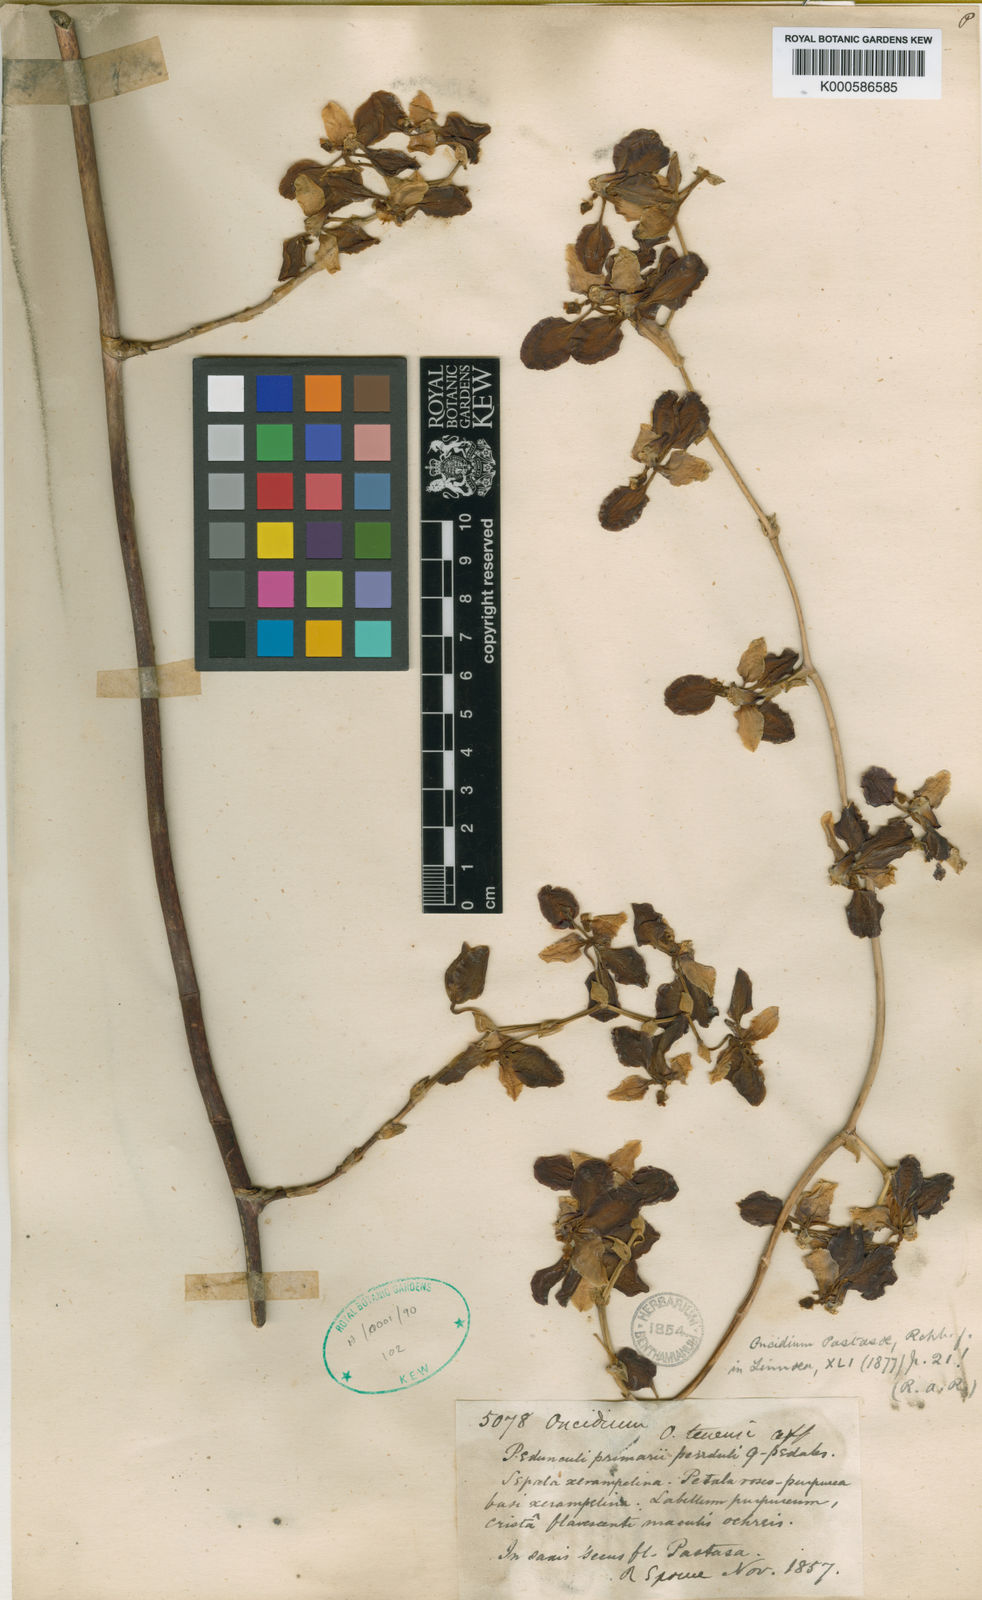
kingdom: Plantae
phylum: Tracheophyta
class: Liliopsida
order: Asparagales
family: Orchidaceae
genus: Cyrtochilum
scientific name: Cyrtochilum pastasae
